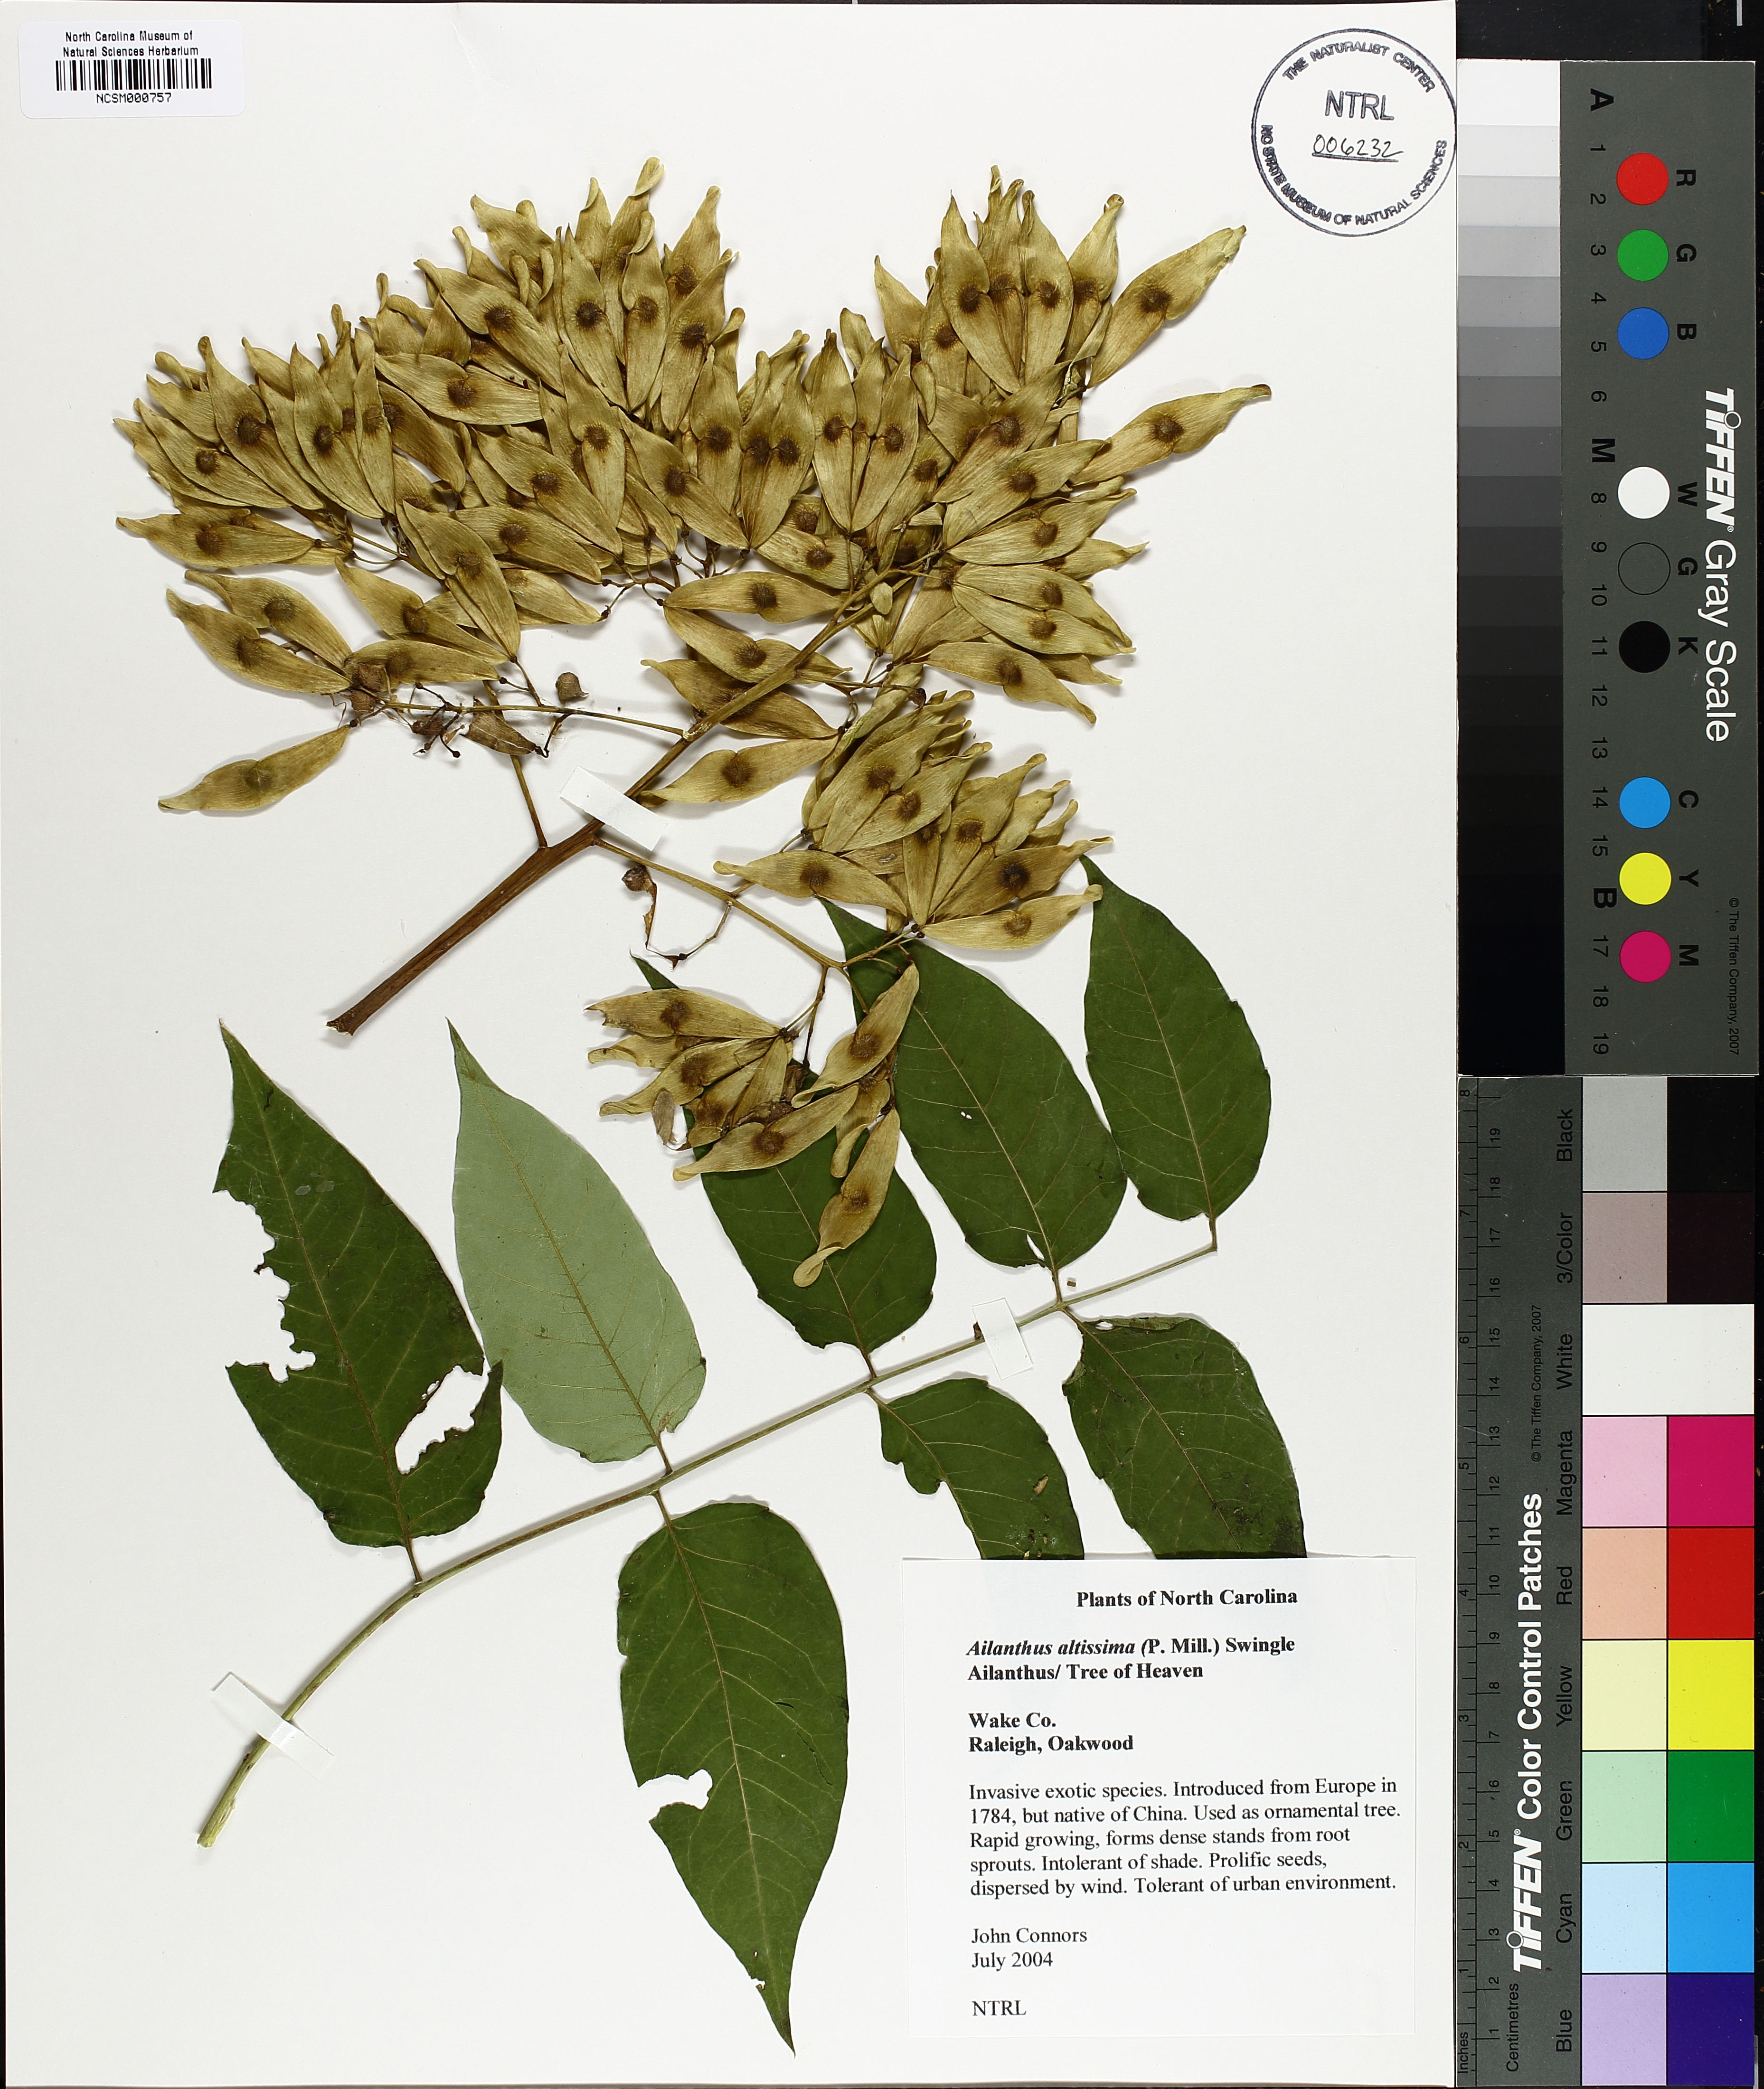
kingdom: Plantae
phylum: Tracheophyta
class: Magnoliopsida
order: Sapindales
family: Simaroubaceae
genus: Ailanthus
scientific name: Ailanthus altissima
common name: Tree-of-heaven
